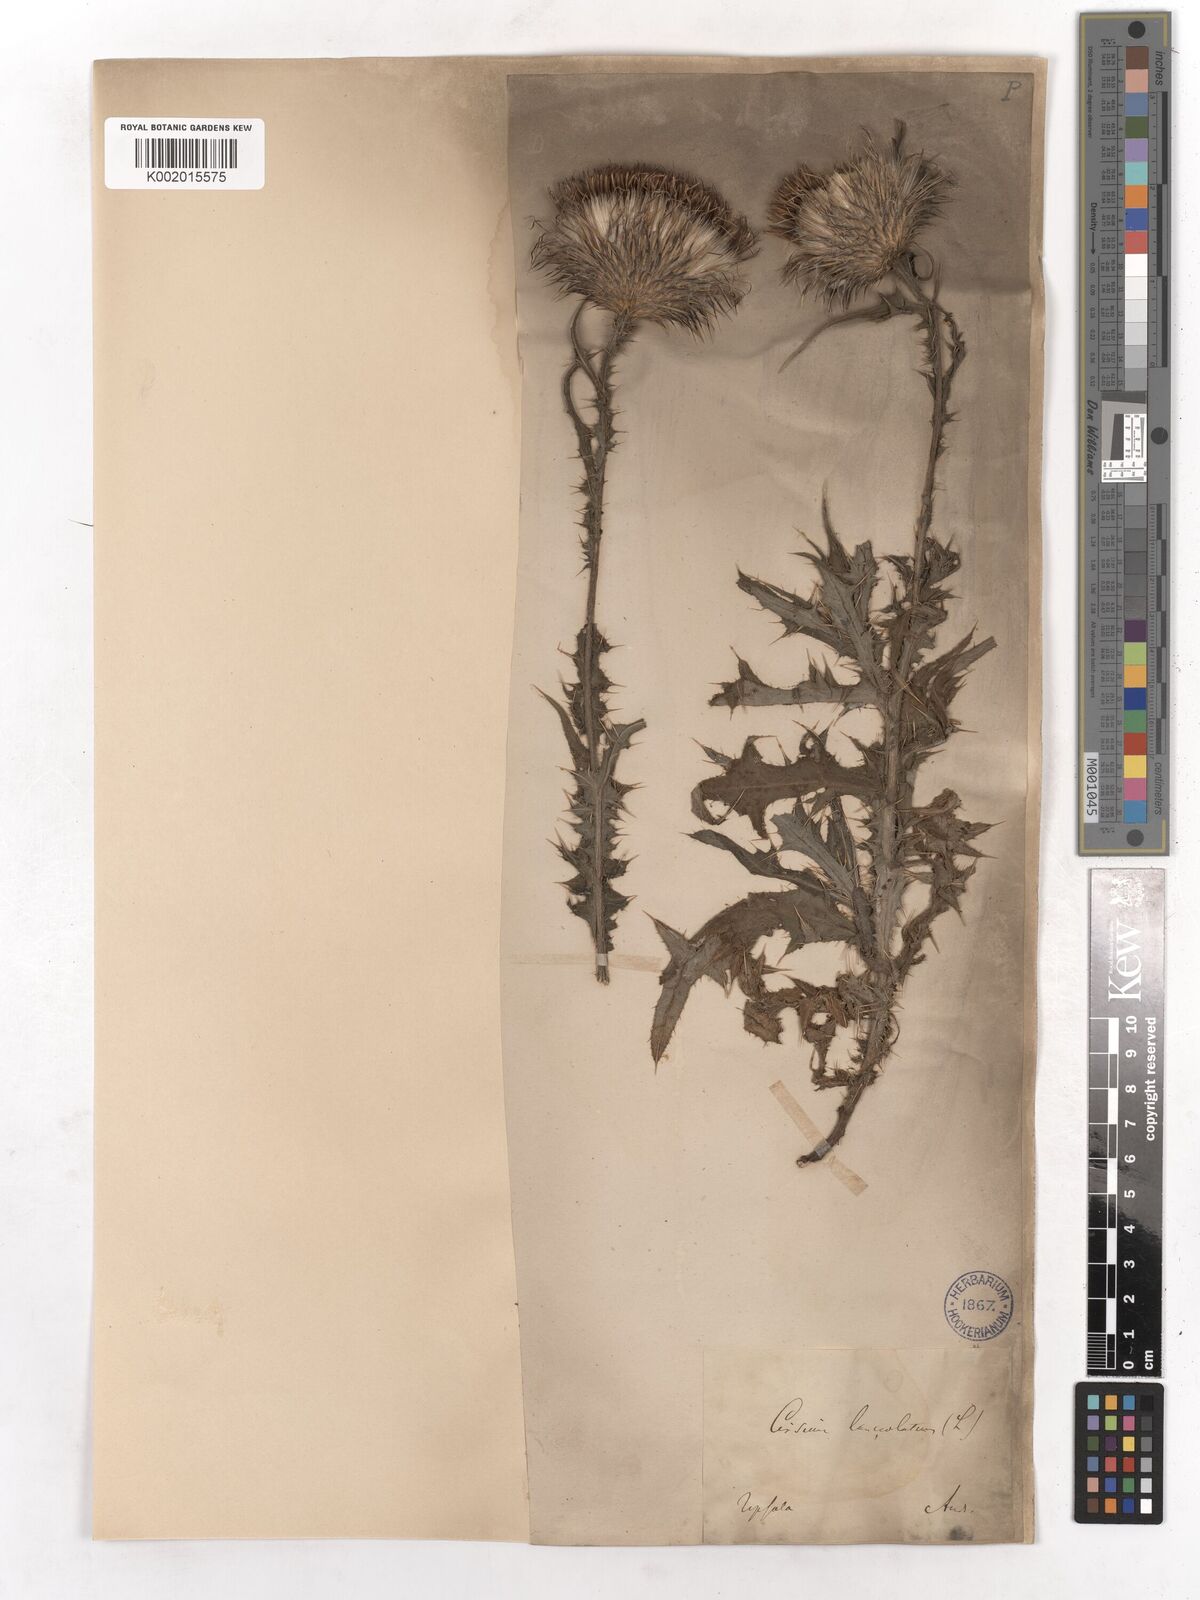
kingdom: Plantae
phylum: Tracheophyta
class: Magnoliopsida
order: Asterales
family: Asteraceae
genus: Cirsium
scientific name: Cirsium vulgare
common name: Bull thistle
